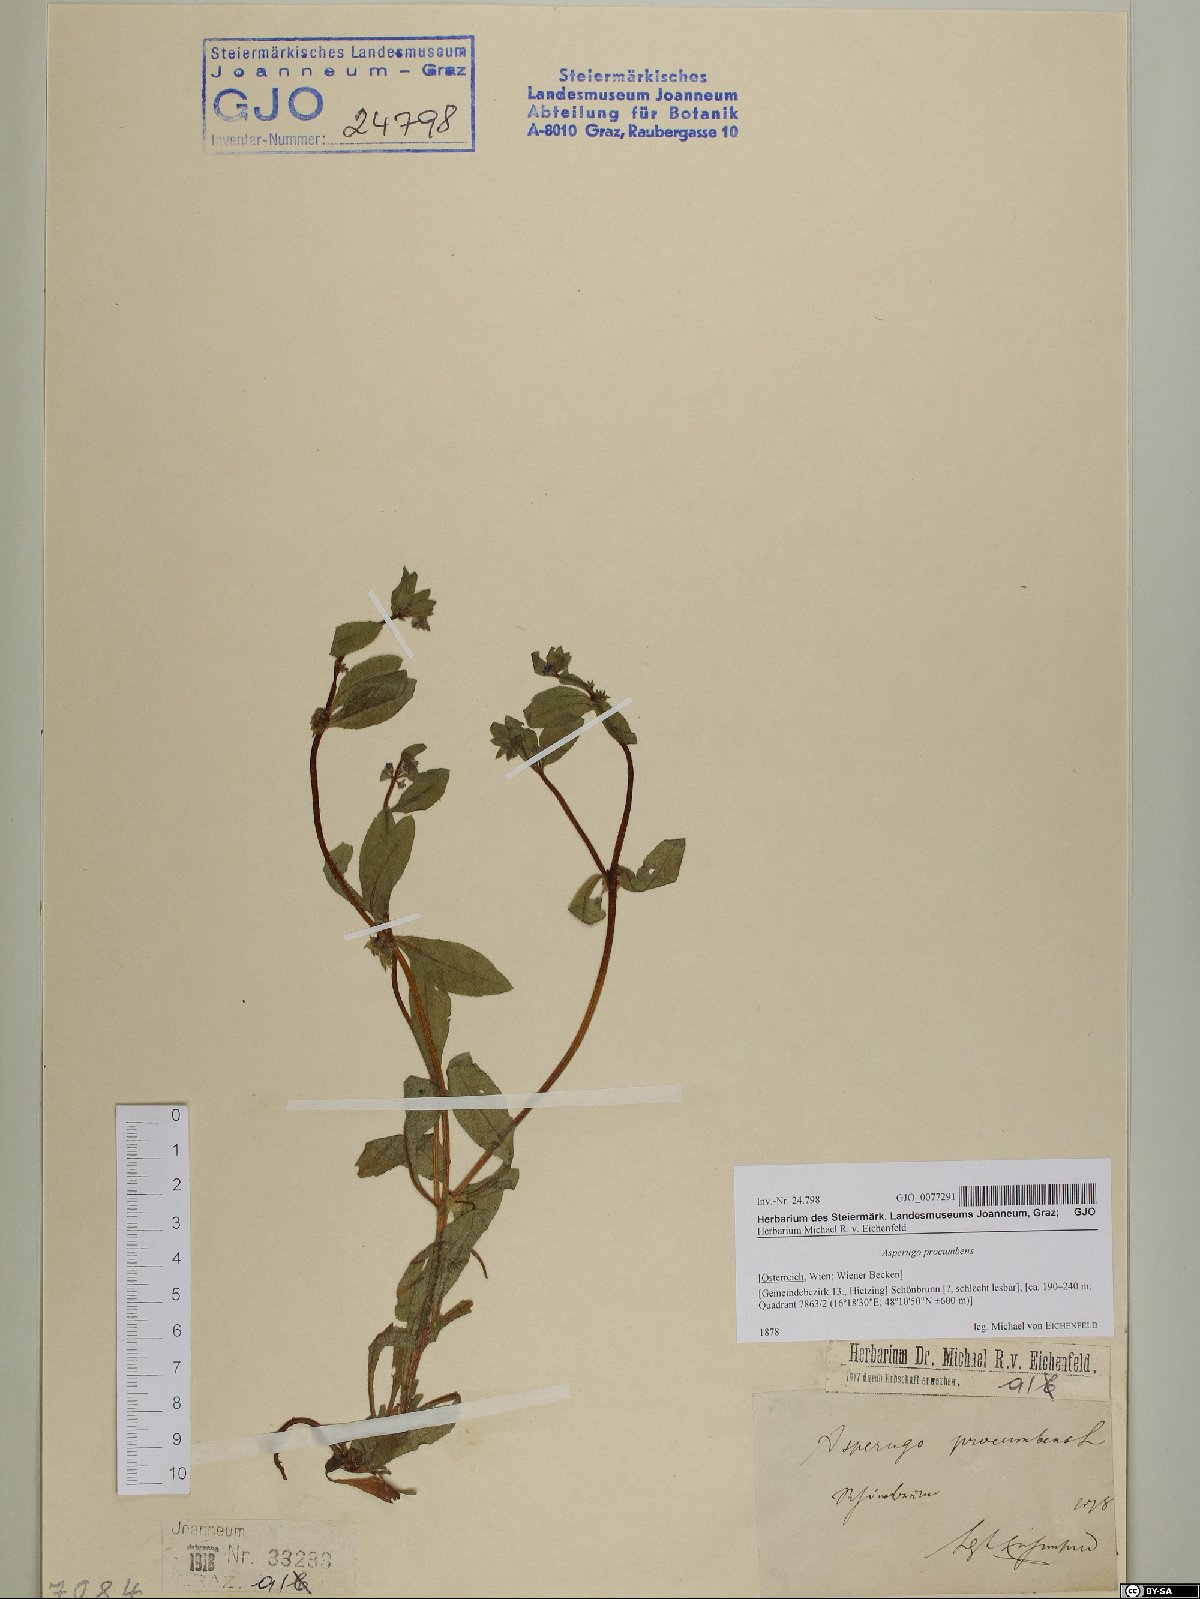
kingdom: Plantae
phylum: Tracheophyta
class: Magnoliopsida
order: Boraginales
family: Boraginaceae
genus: Asperugo
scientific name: Asperugo procumbens
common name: Madwort
